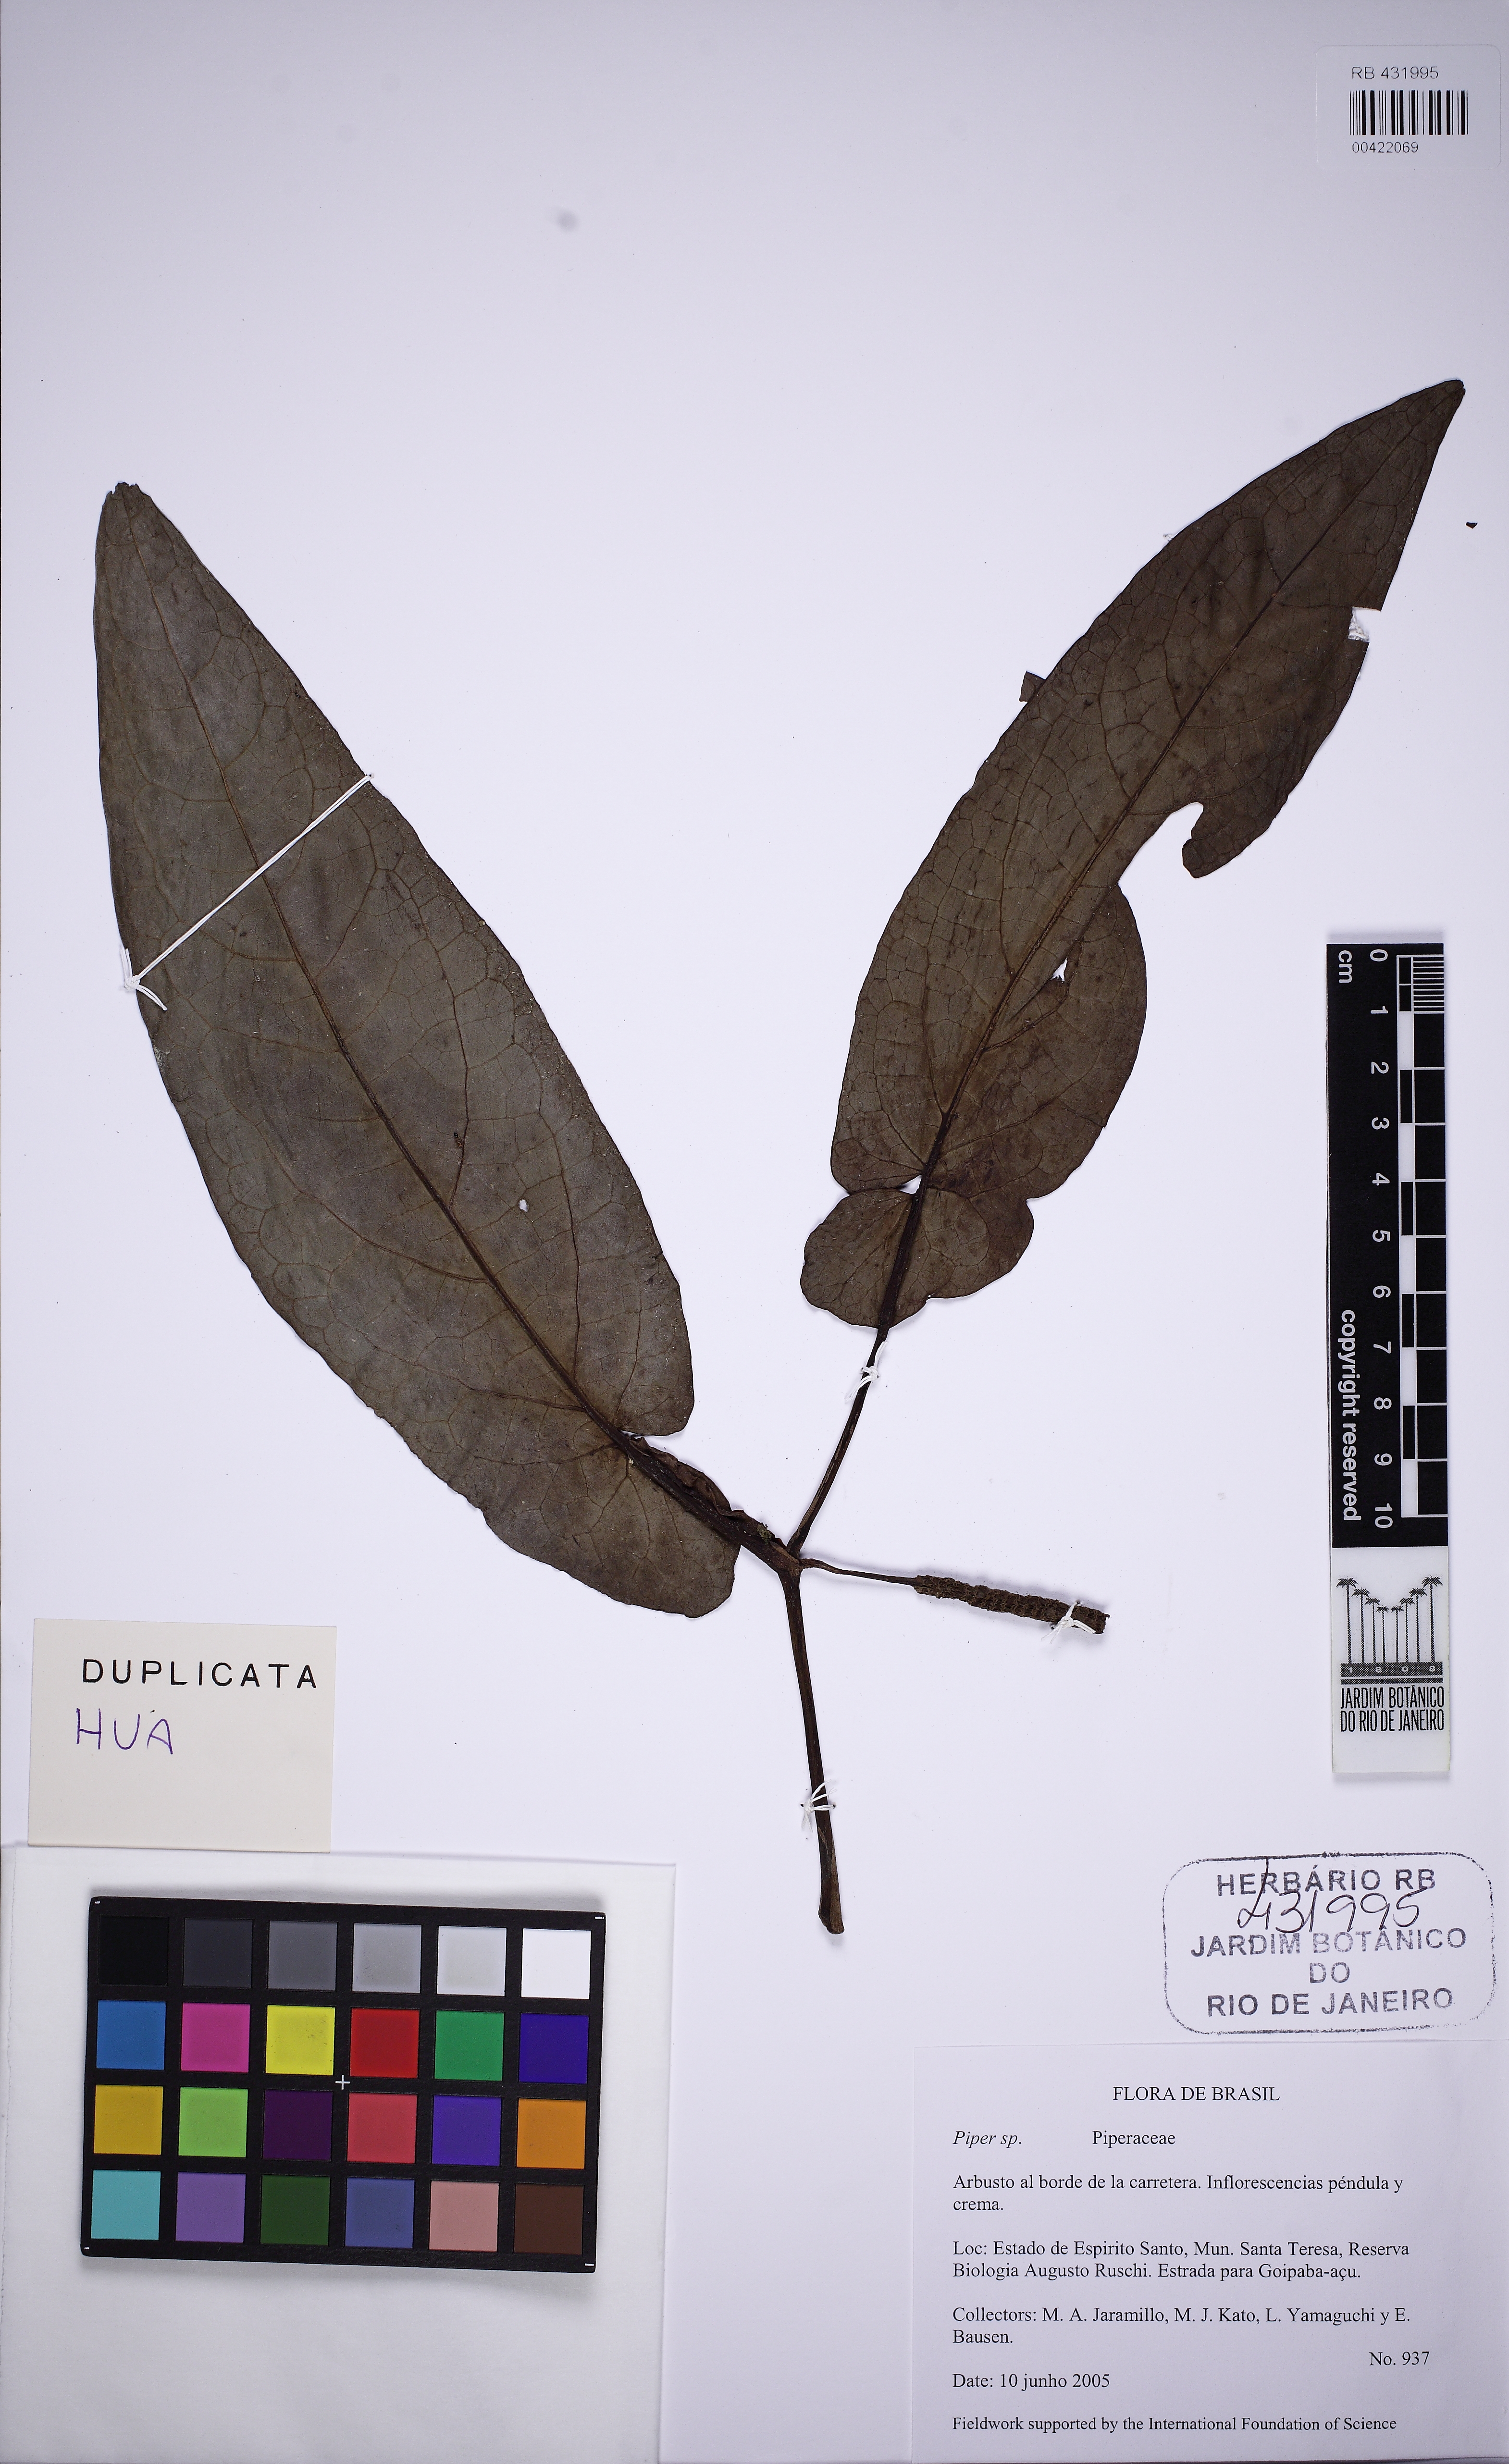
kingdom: Plantae
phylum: Tracheophyta
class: Magnoliopsida
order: Piperales
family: Piperaceae
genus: Piper
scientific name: Piper truncatum
